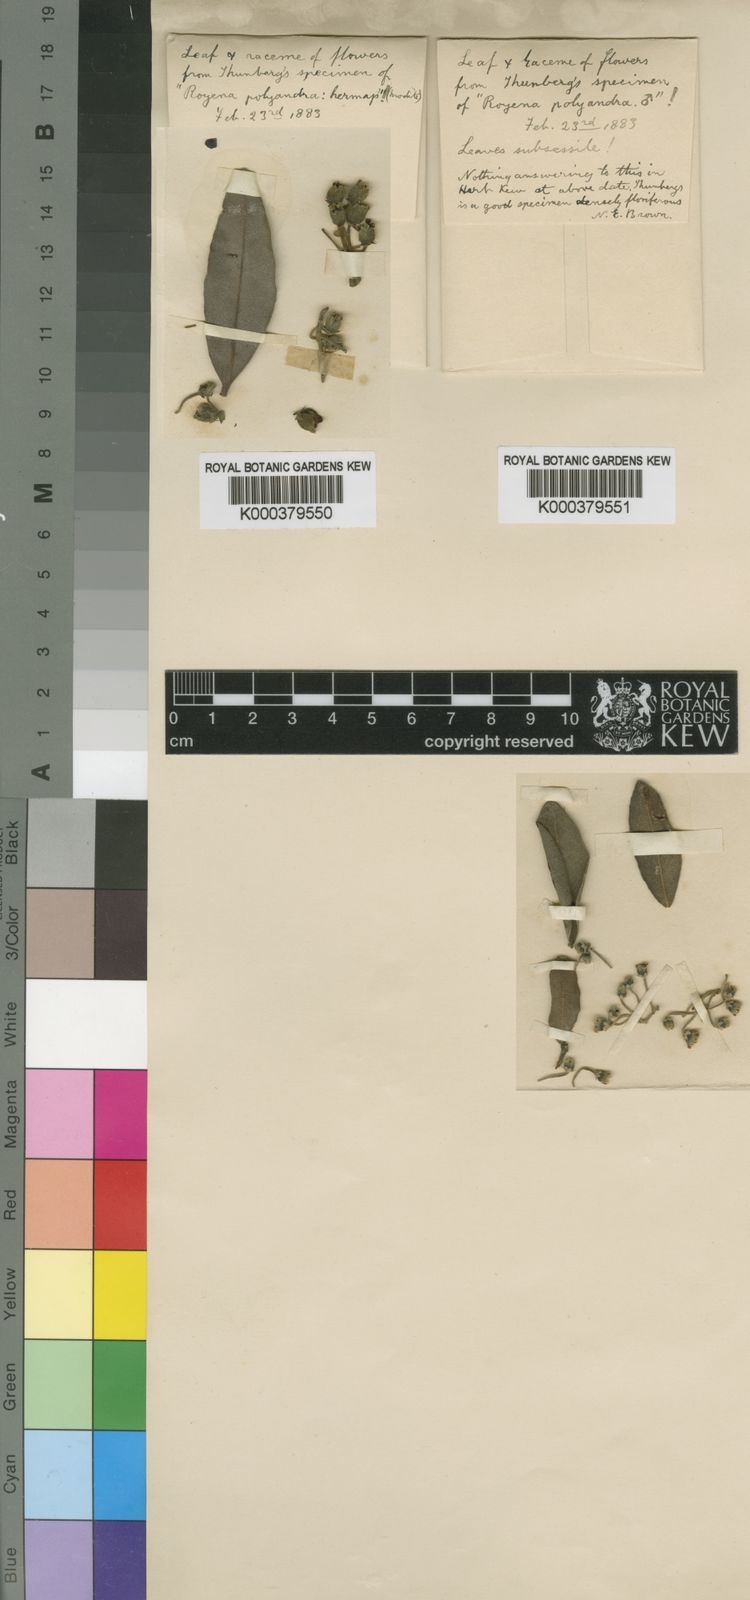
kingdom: Plantae
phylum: Tracheophyta
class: Magnoliopsida
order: Ericales
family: Ebenaceae
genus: Euclea
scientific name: Euclea
